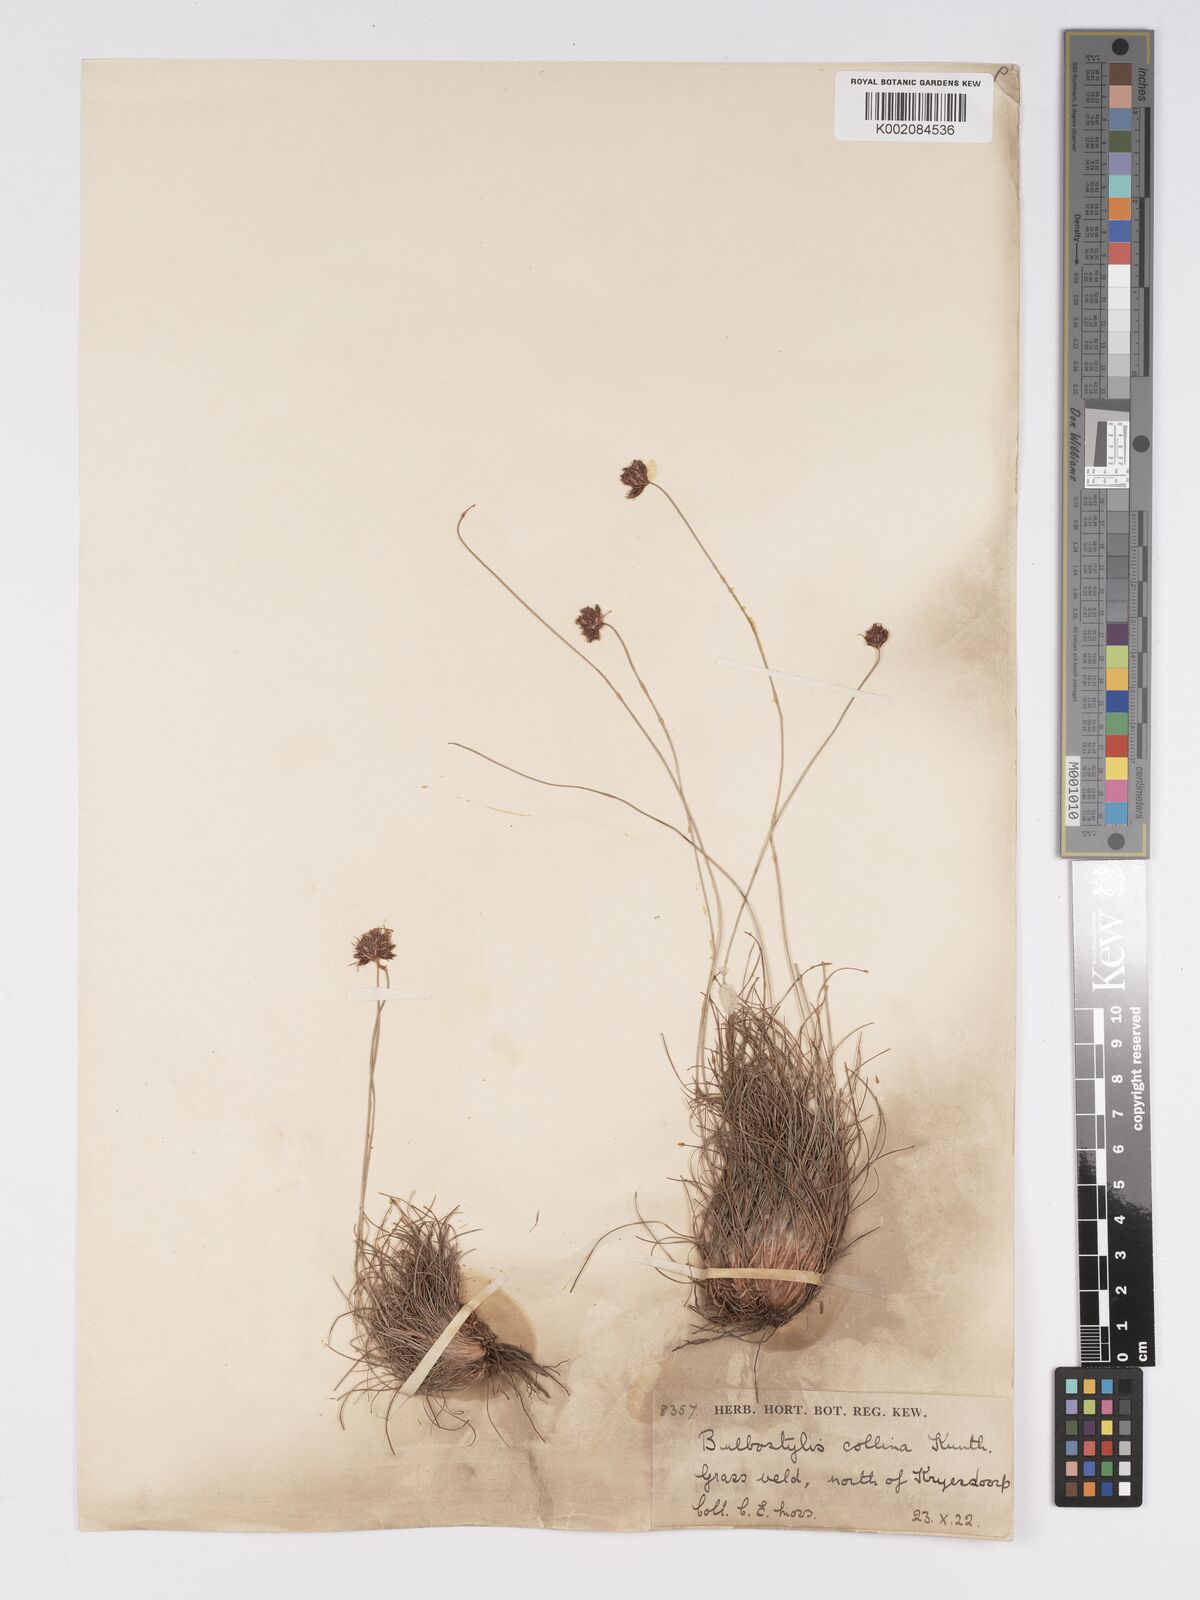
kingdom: Plantae
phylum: Tracheophyta
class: Liliopsida
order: Poales
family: Cyperaceae
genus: Bulbostylis
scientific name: Bulbostylis contexta
